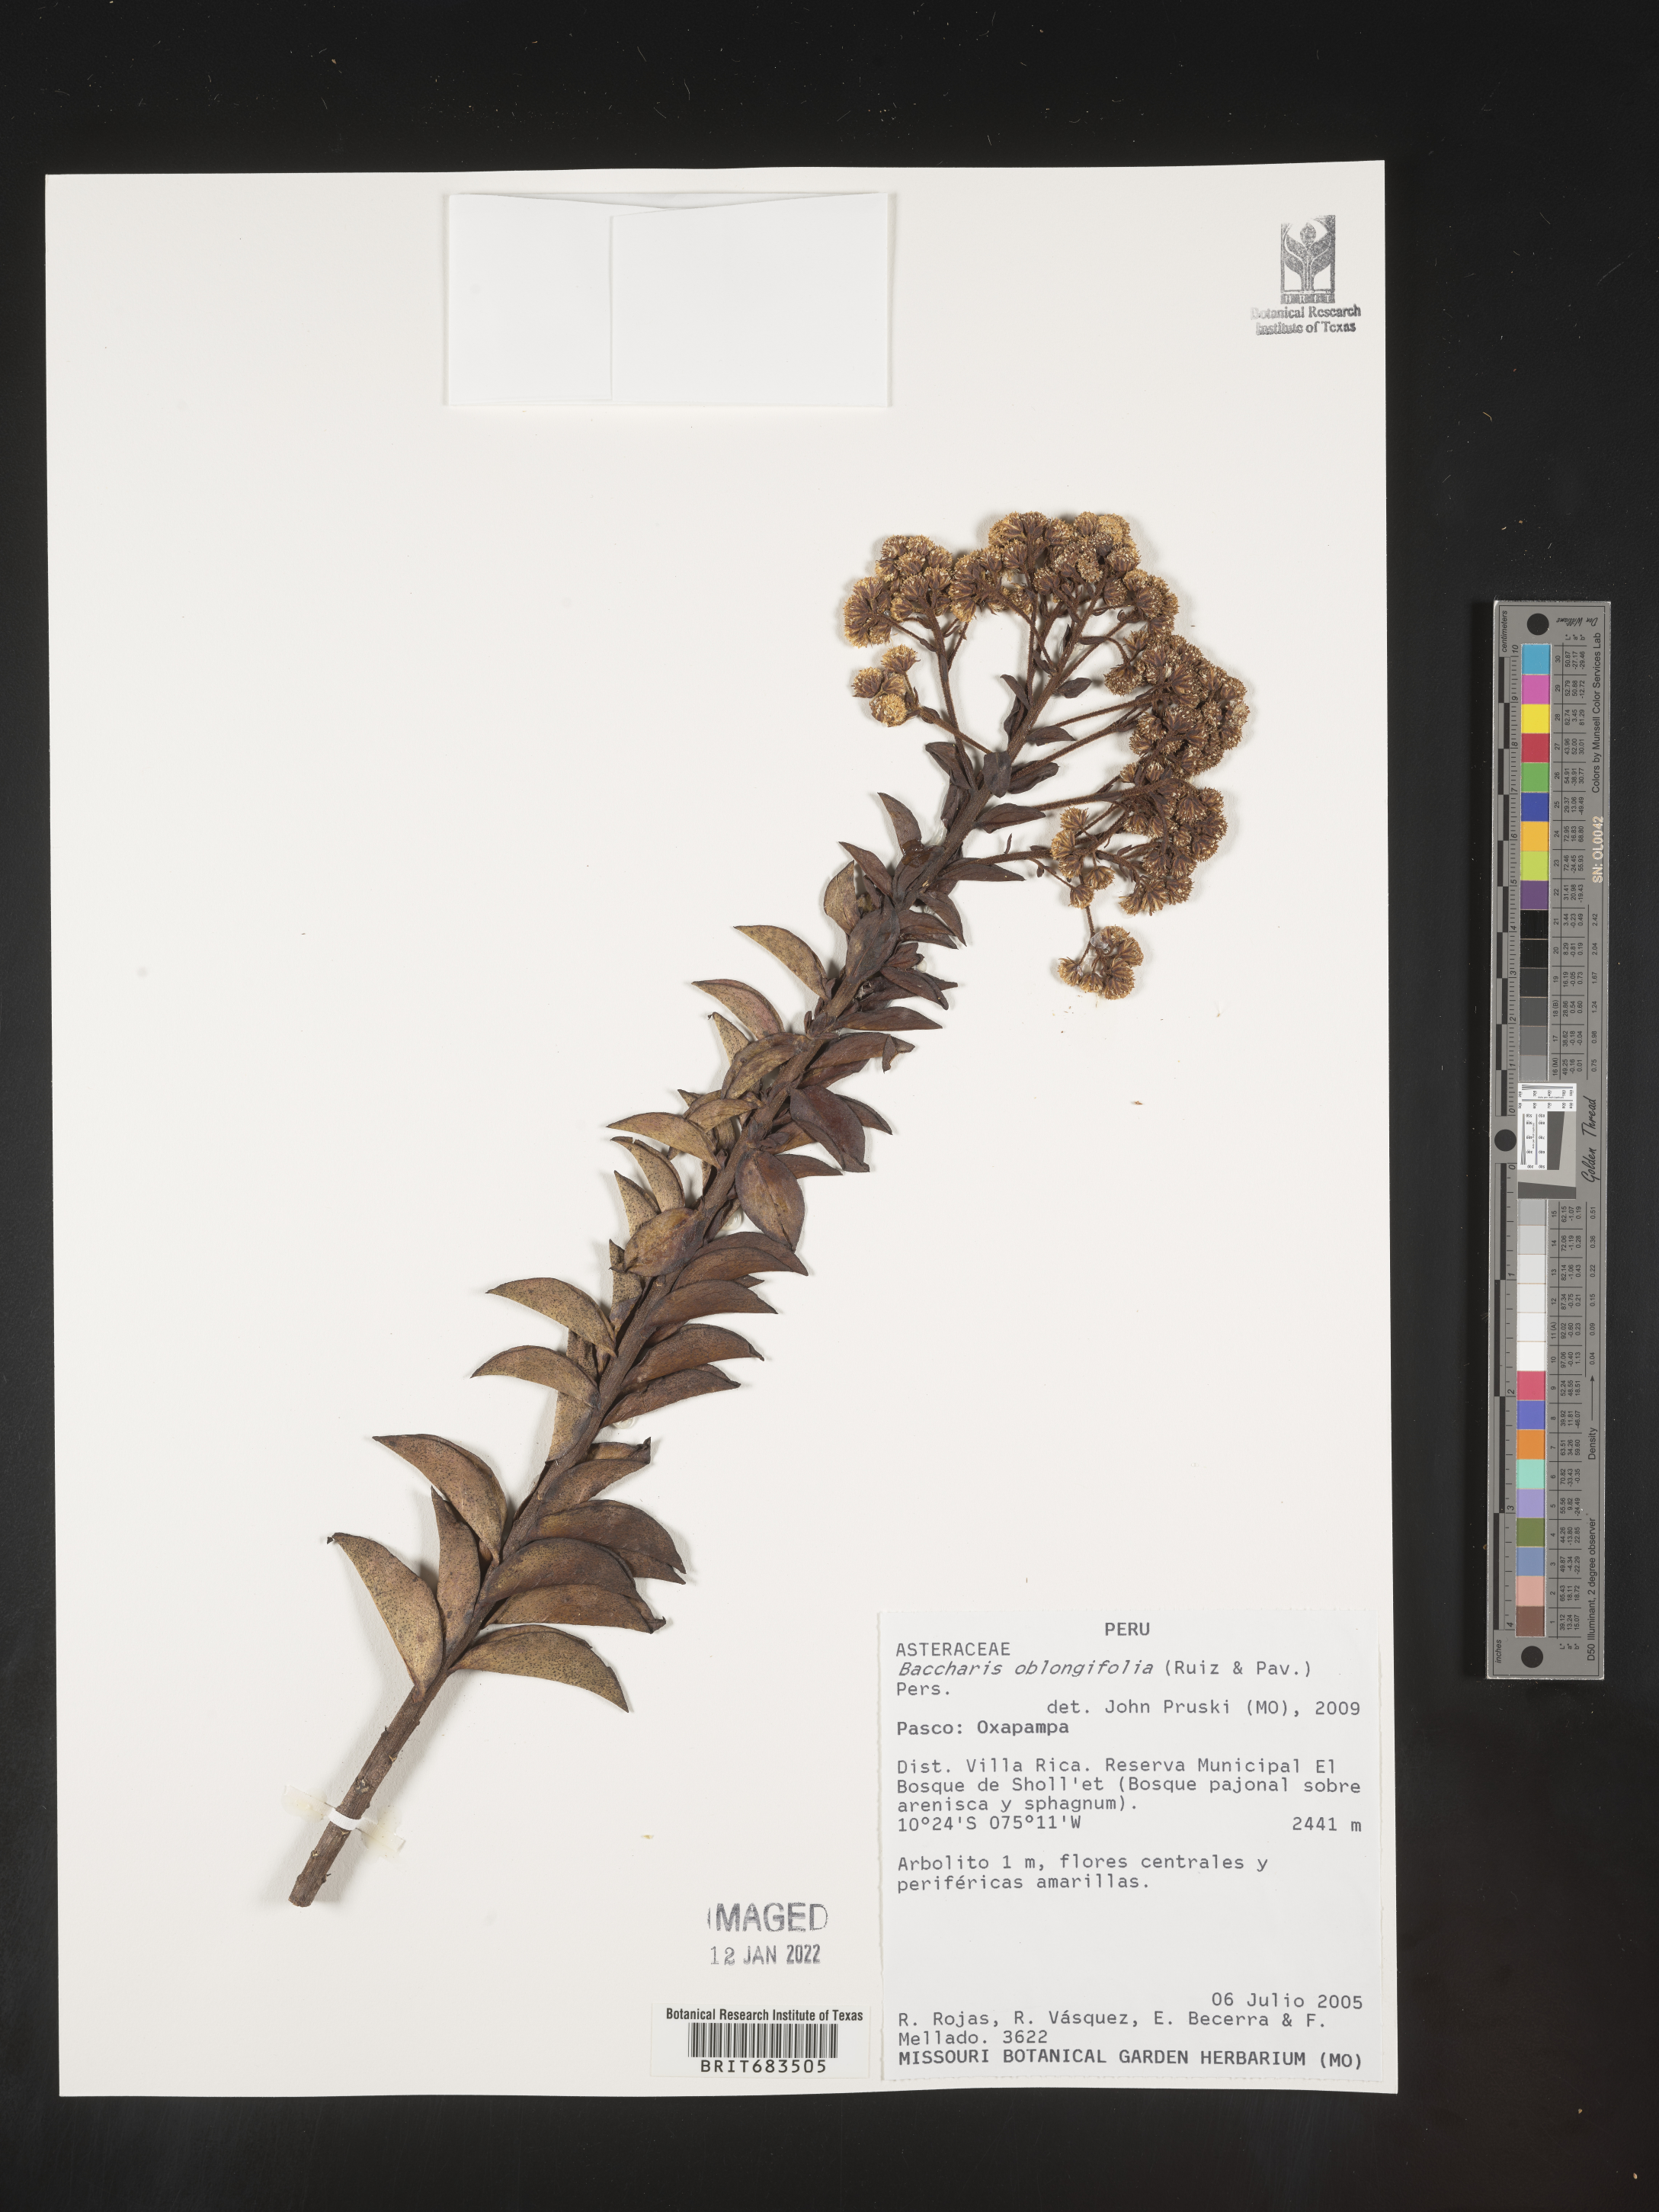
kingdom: Plantae
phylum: Tracheophyta
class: Magnoliopsida
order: Asterales
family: Asteraceae
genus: Baccharis
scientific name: Baccharis
